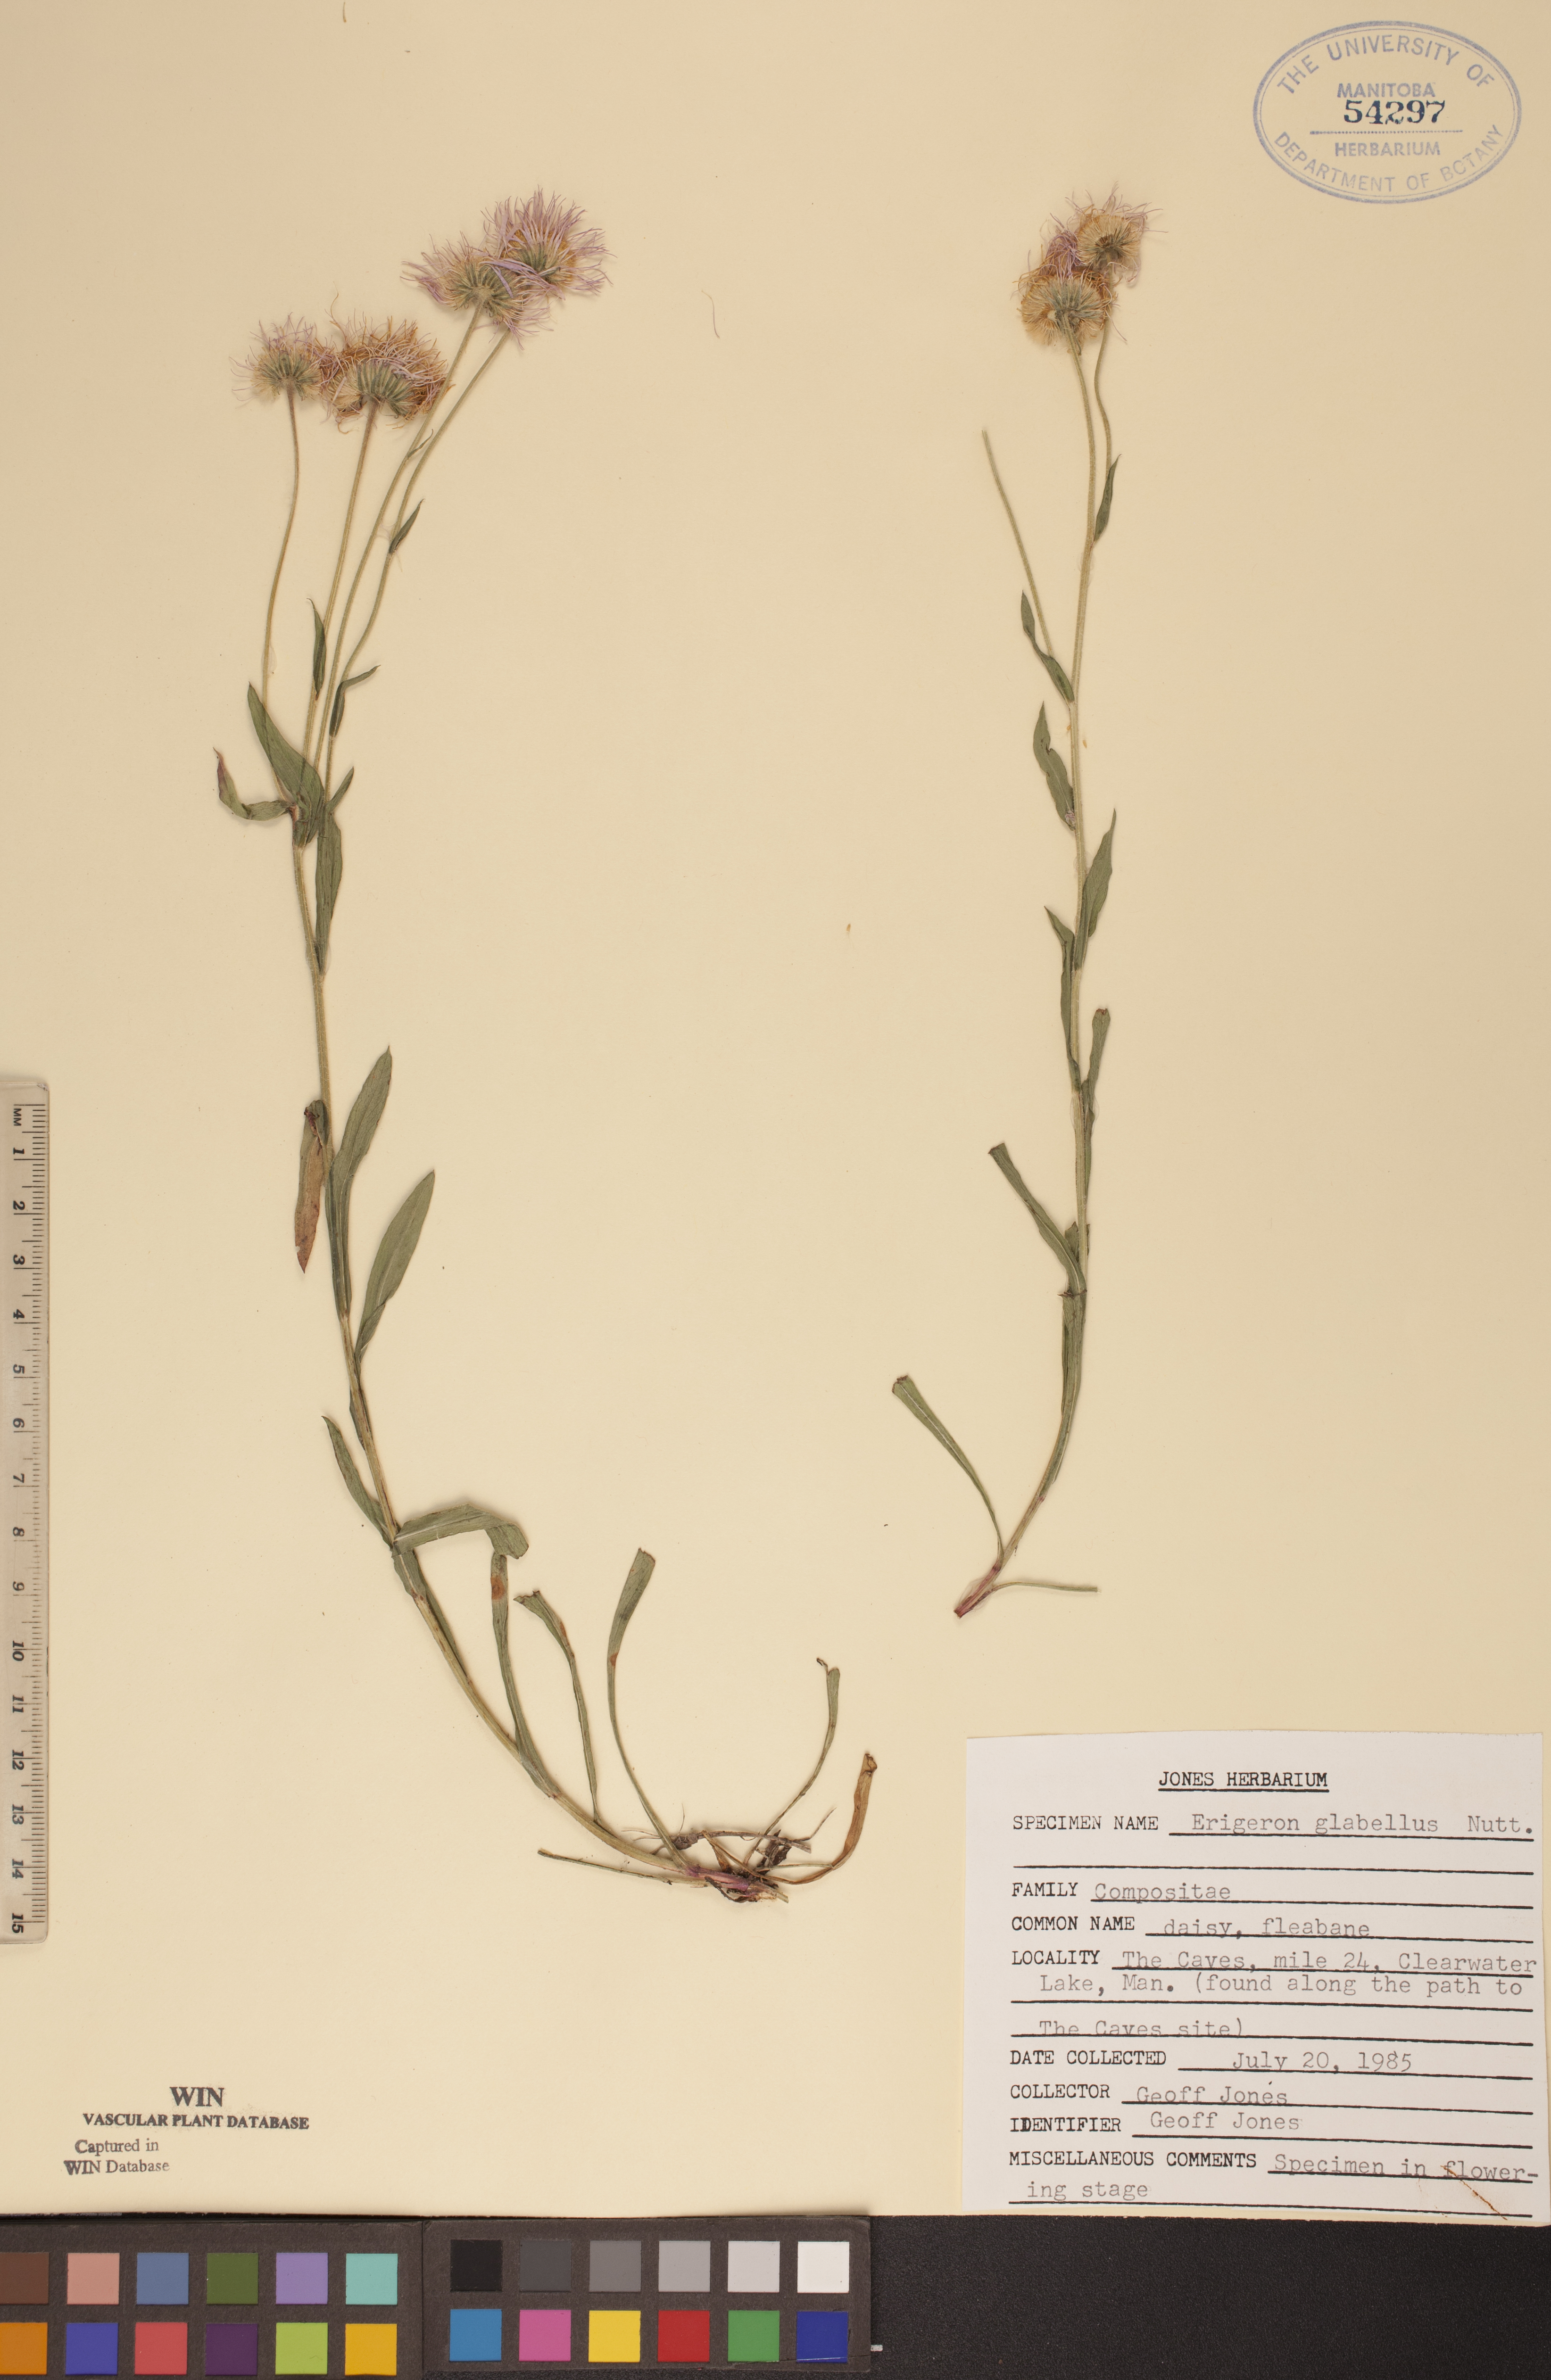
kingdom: Plantae
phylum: Tracheophyta
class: Magnoliopsida
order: Asterales
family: Asteraceae
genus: Erigeron
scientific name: Erigeron glabellus
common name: Smooth fleabane
